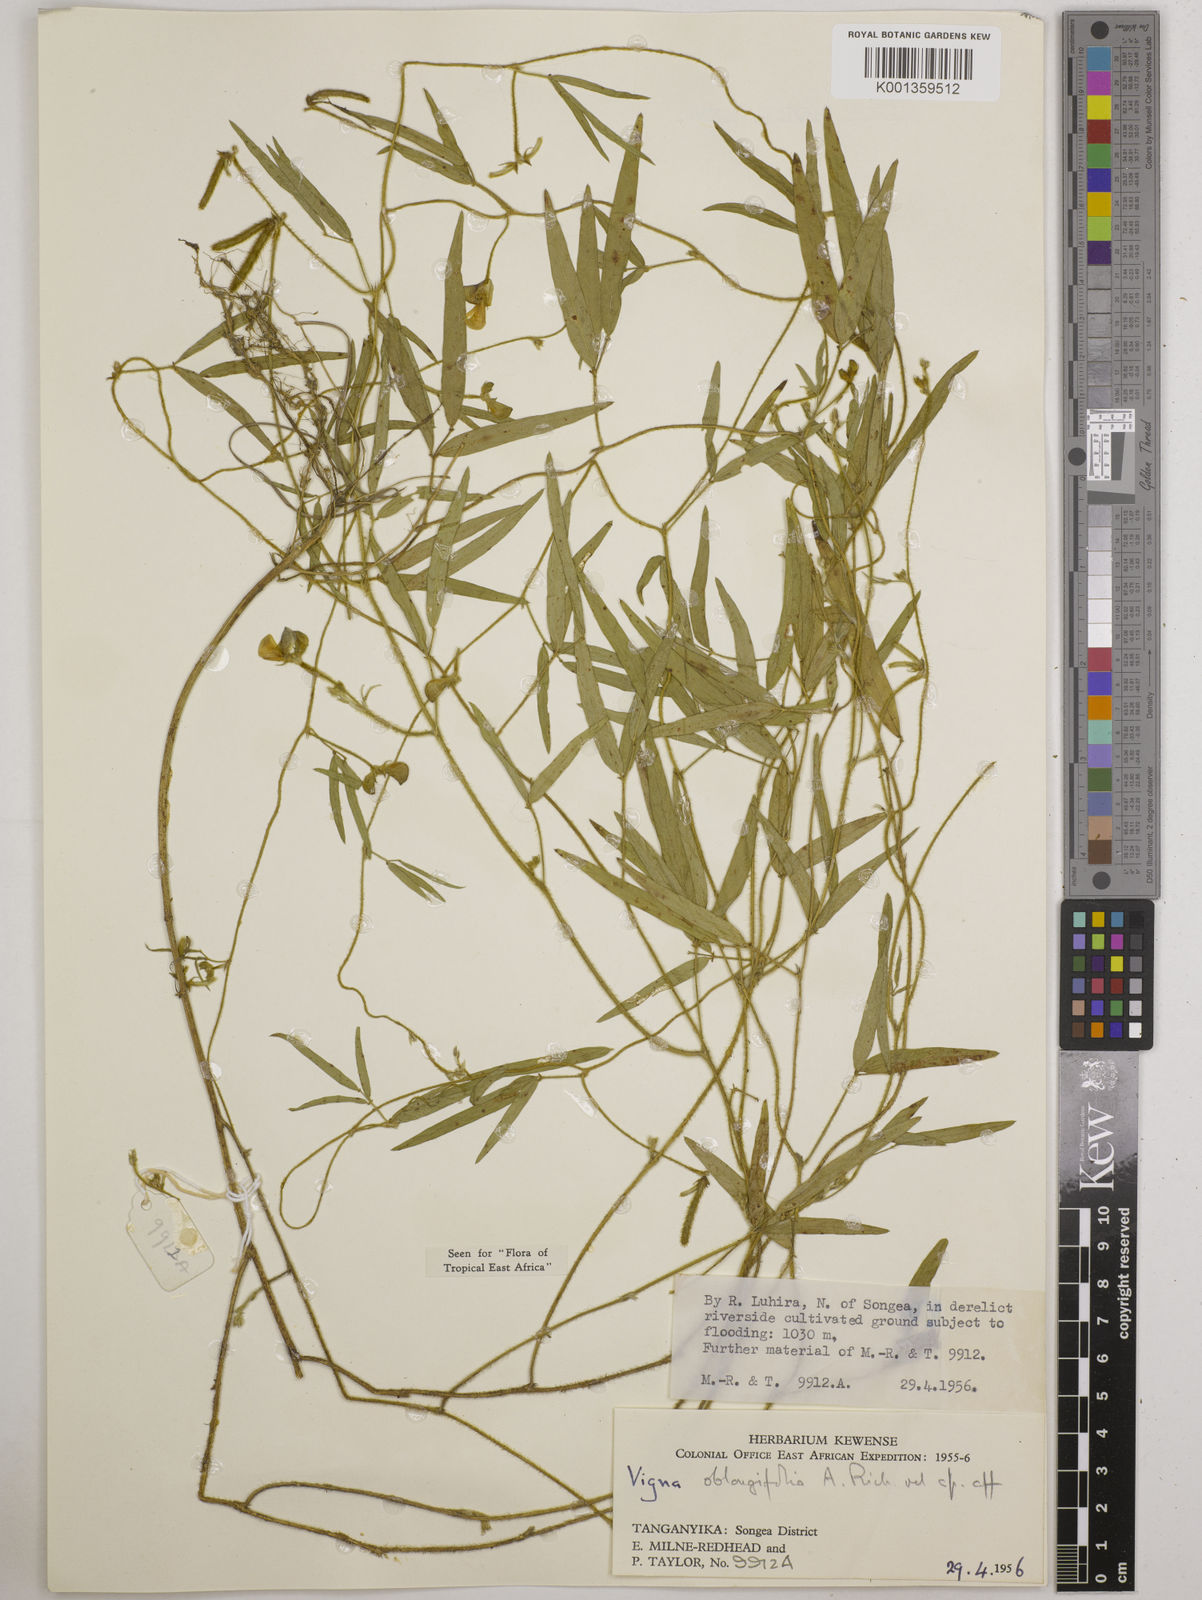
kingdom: Plantae
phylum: Tracheophyta
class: Magnoliopsida
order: Fabales
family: Fabaceae
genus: Vigna
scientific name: Vigna oblongifolia
